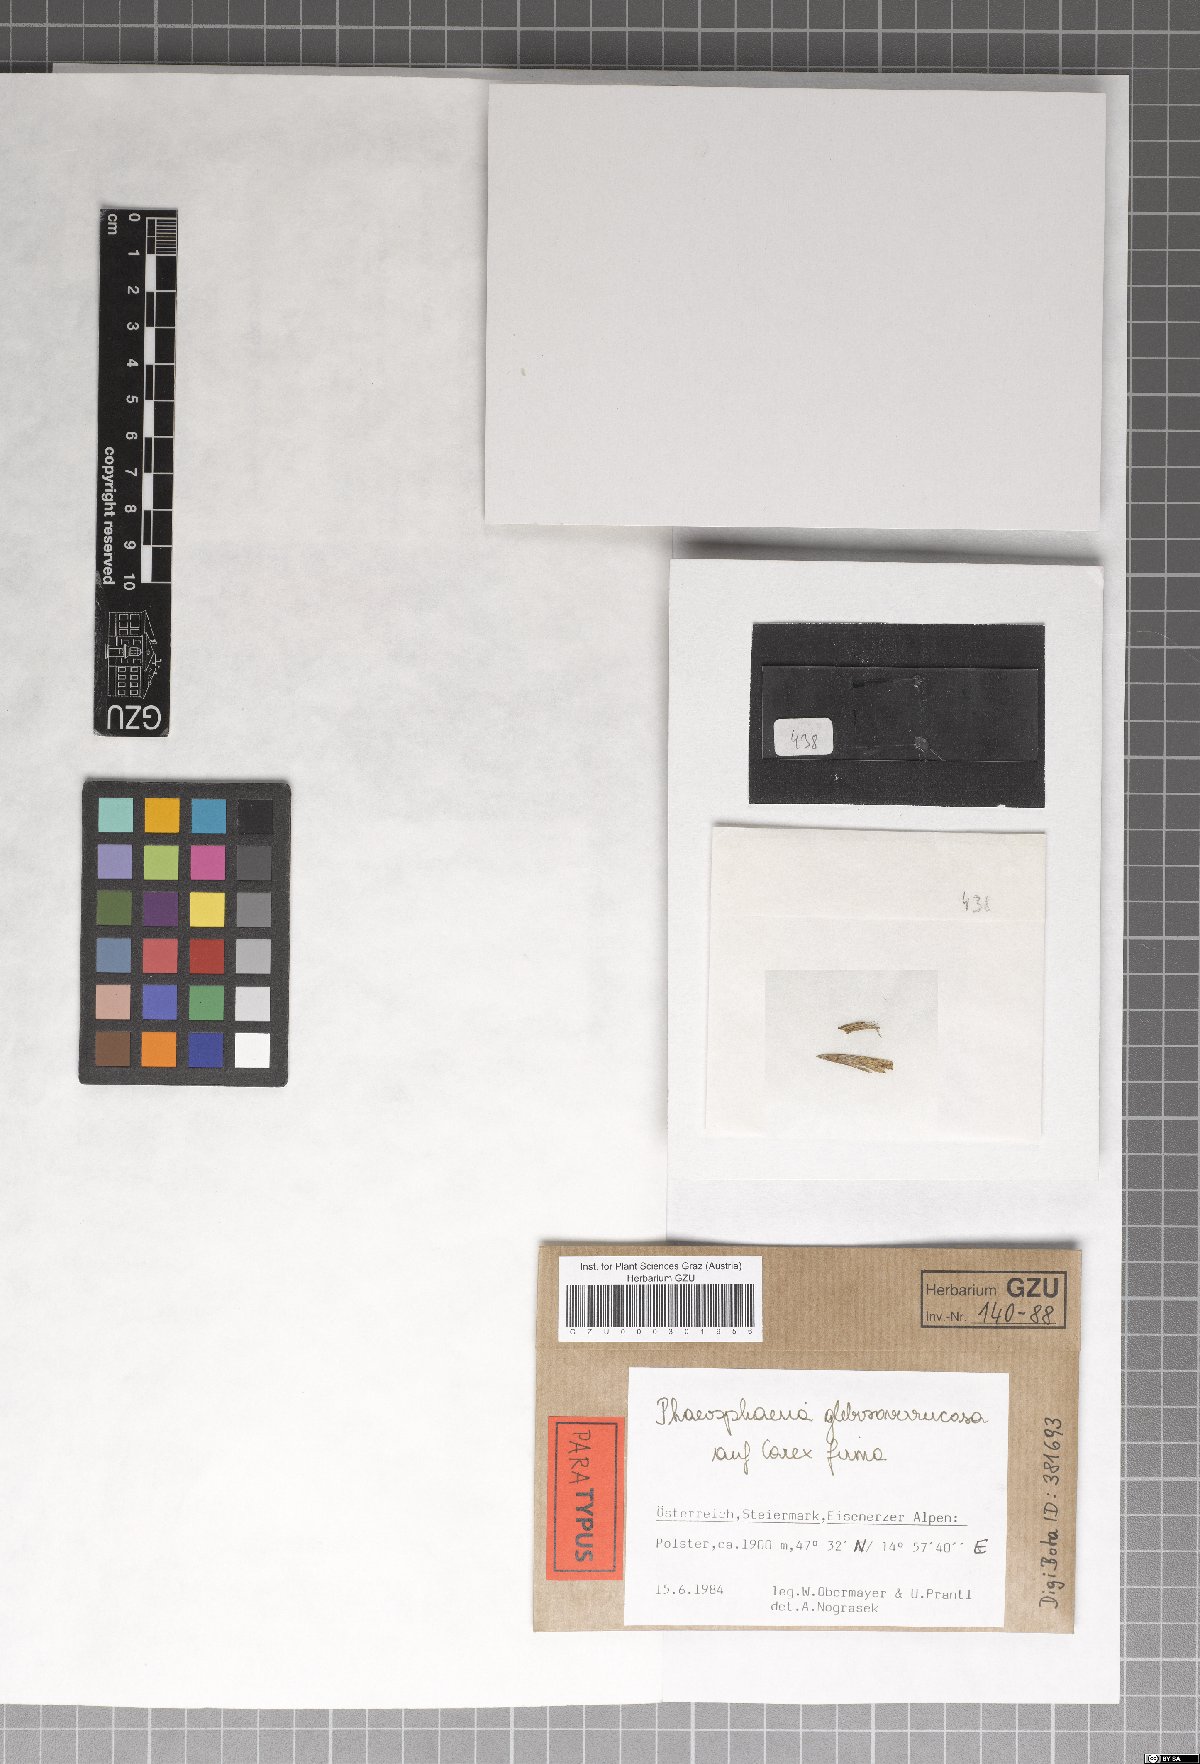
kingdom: Fungi
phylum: Ascomycota
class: Dothideomycetes
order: Pleosporales
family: Phaeosphaeriaceae
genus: Phaeosphaeria
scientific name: Phaeosphaeria glebosoverrucosa
